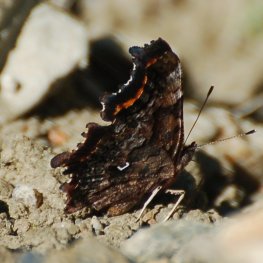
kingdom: Animalia
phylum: Arthropoda
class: Insecta
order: Lepidoptera
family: Nymphalidae
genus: Polygonia
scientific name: Polygonia faunus
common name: Green Comma
